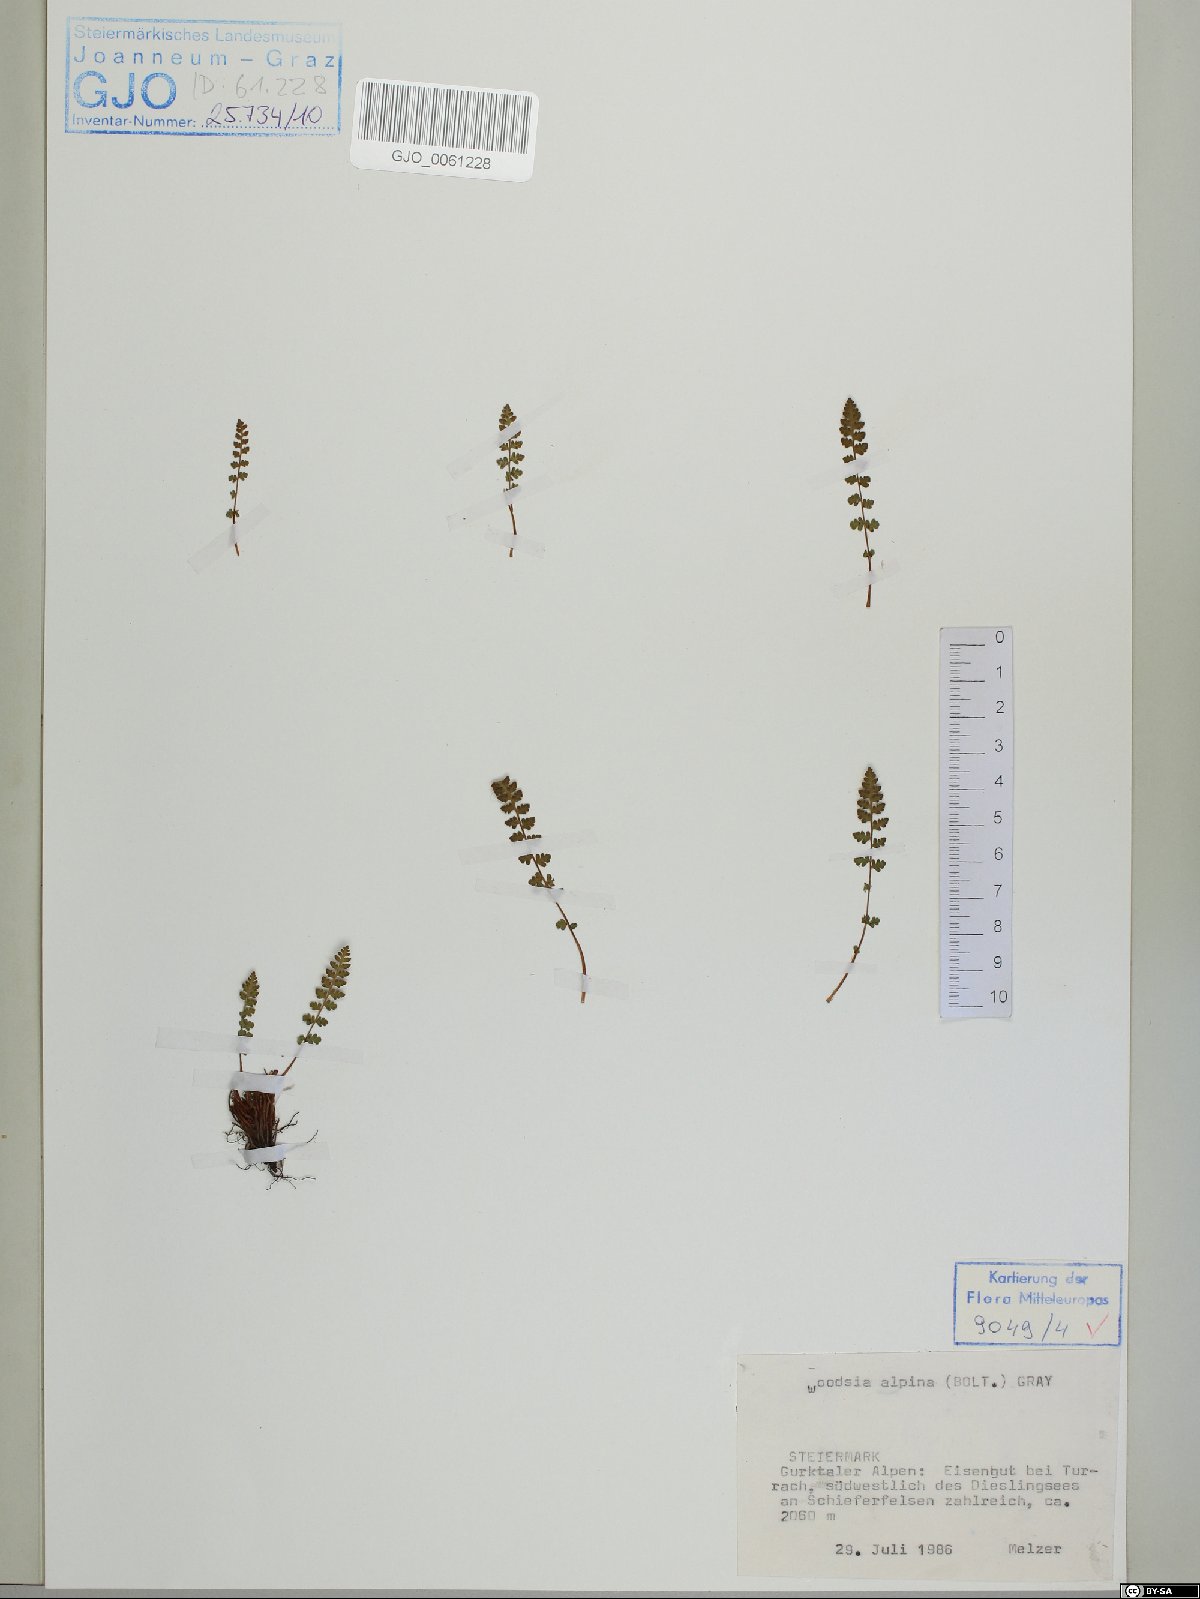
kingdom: Plantae
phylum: Tracheophyta
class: Polypodiopsida
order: Polypodiales
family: Woodsiaceae
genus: Woodsia
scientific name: Woodsia alpina
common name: Alpine woodsia
